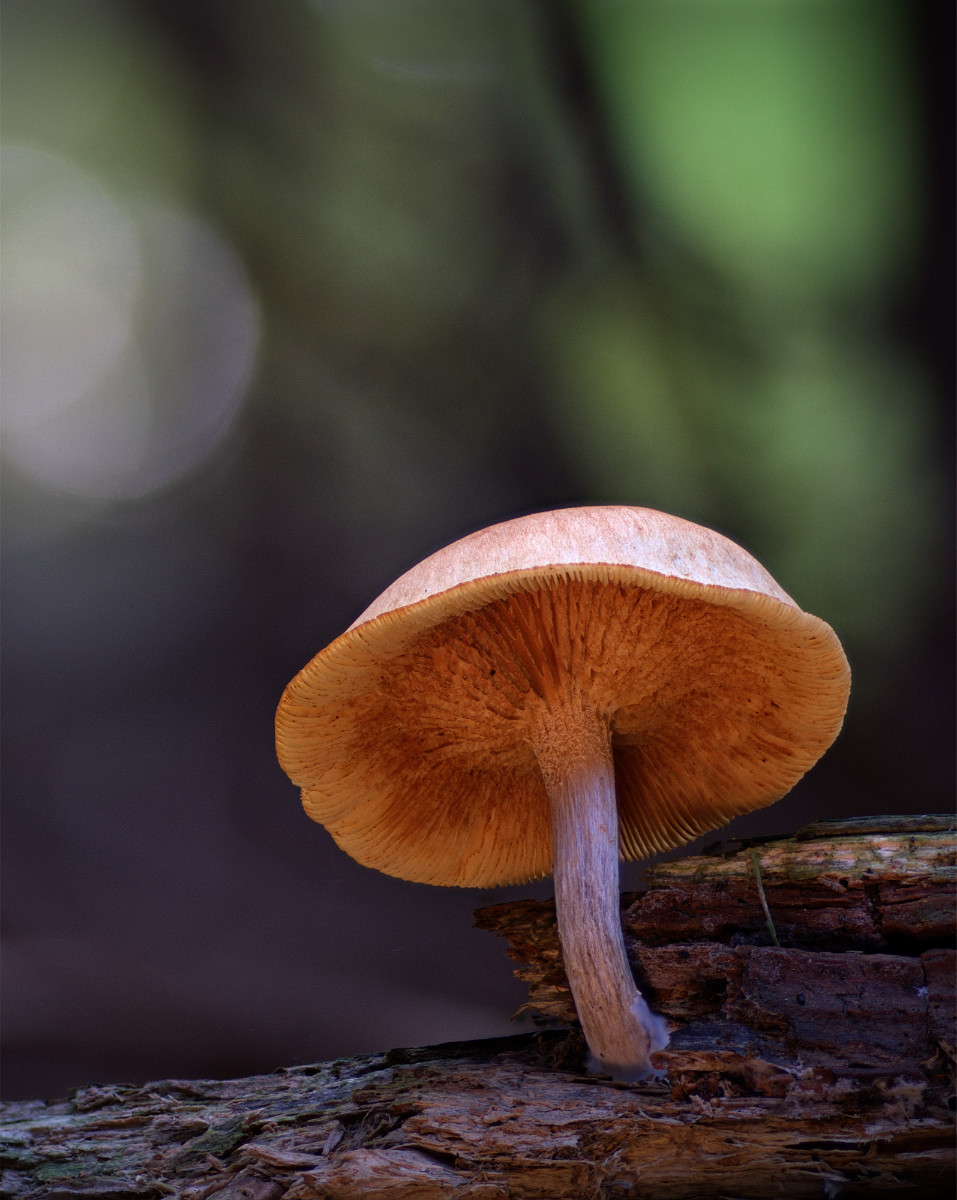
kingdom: Fungi
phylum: Basidiomycota
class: Agaricomycetes
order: Agaricales
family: Hymenogastraceae
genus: Gymnopilus
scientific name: Gymnopilus penetrans
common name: plettet flammehat
